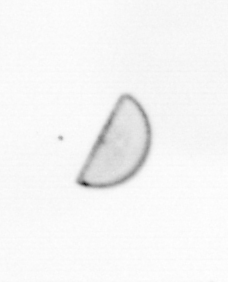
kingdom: Chromista
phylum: Ochrophyta
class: Bacillariophyceae
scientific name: Bacillariophyceae
